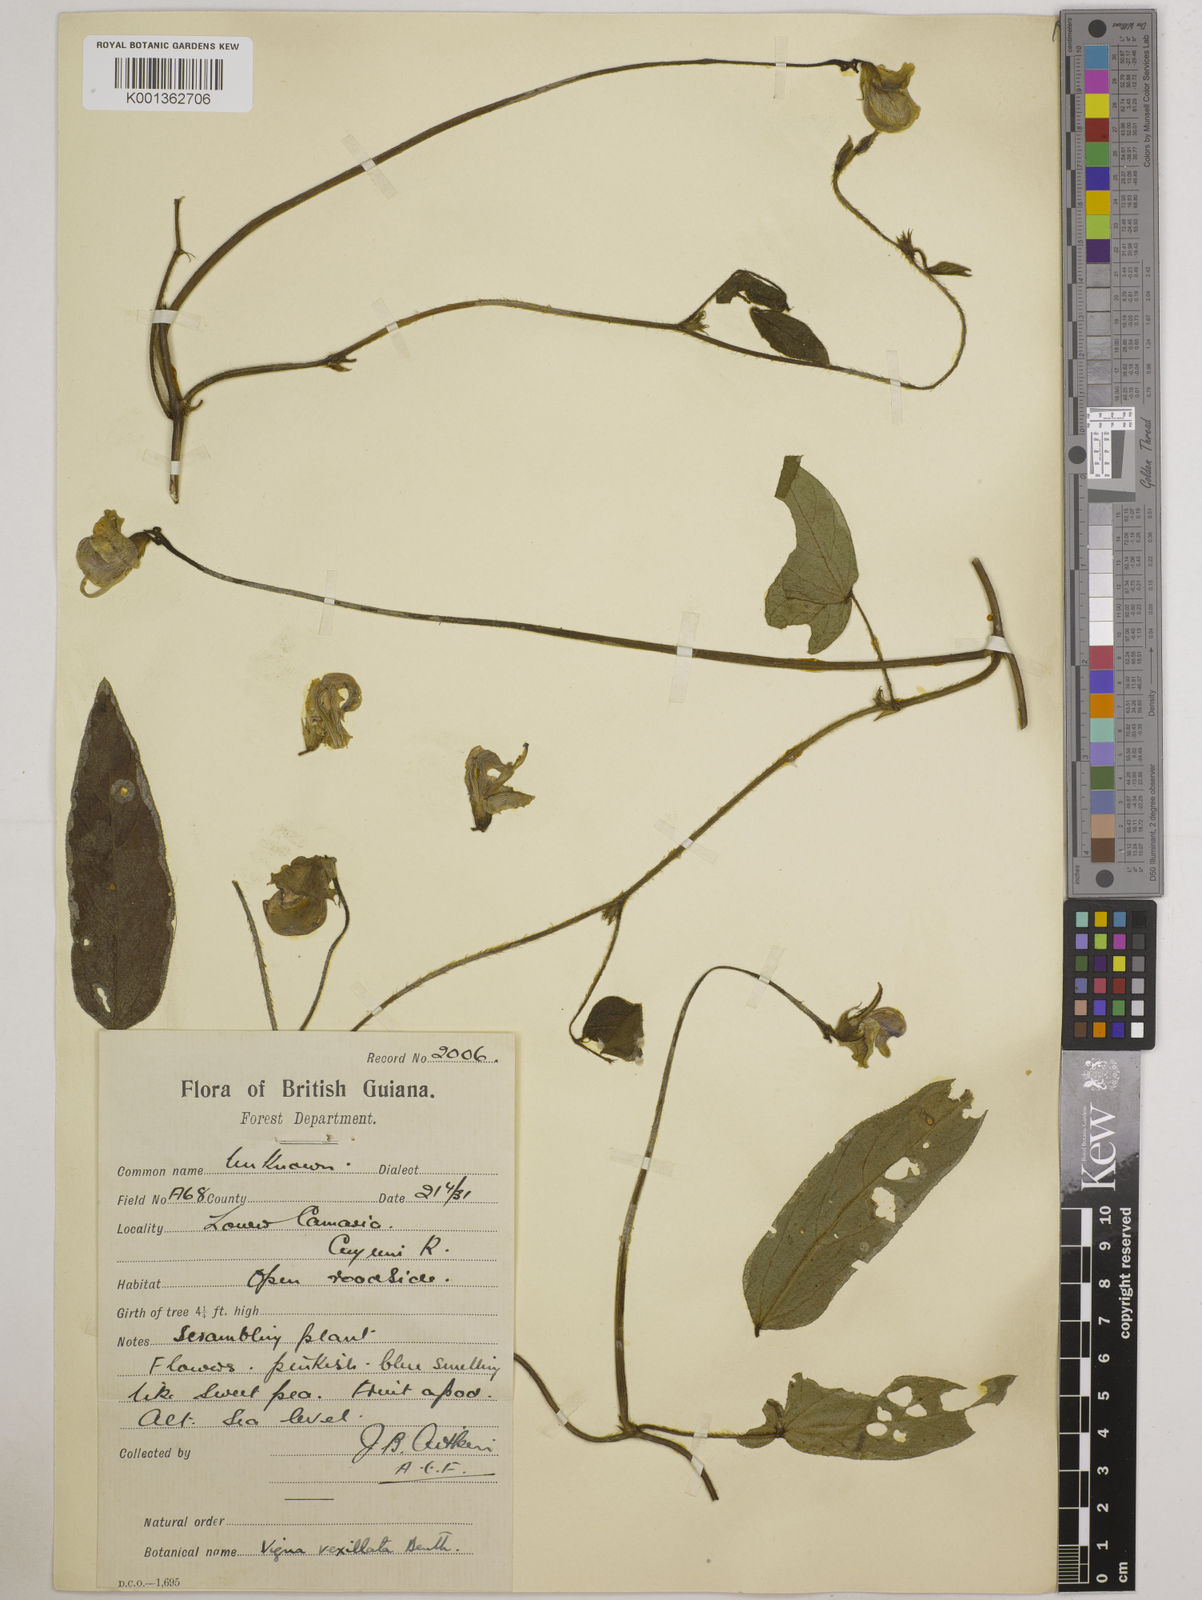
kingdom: Plantae
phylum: Tracheophyta
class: Magnoliopsida
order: Fabales
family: Fabaceae
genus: Vigna
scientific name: Vigna vexillata
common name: Zombi pea
